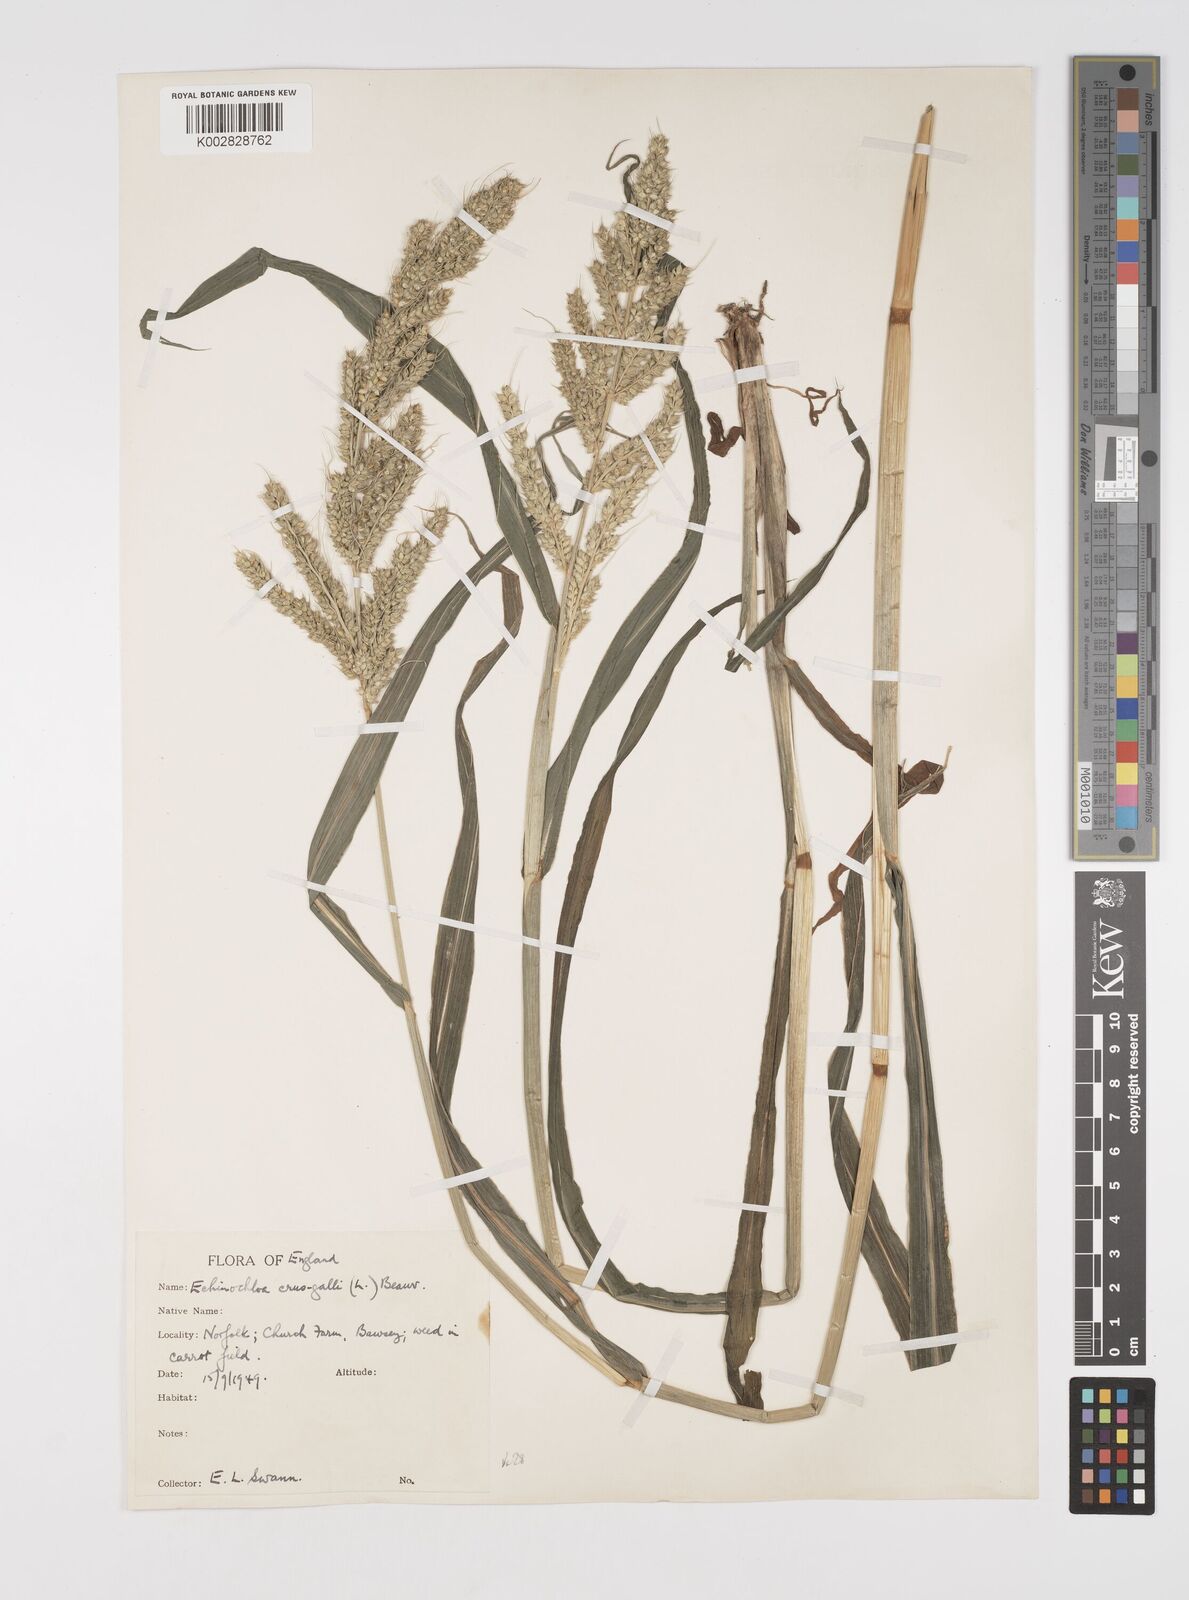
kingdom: Plantae
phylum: Tracheophyta
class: Liliopsida
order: Poales
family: Poaceae
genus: Echinochloa
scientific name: Echinochloa crus-galli
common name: Cockspur
